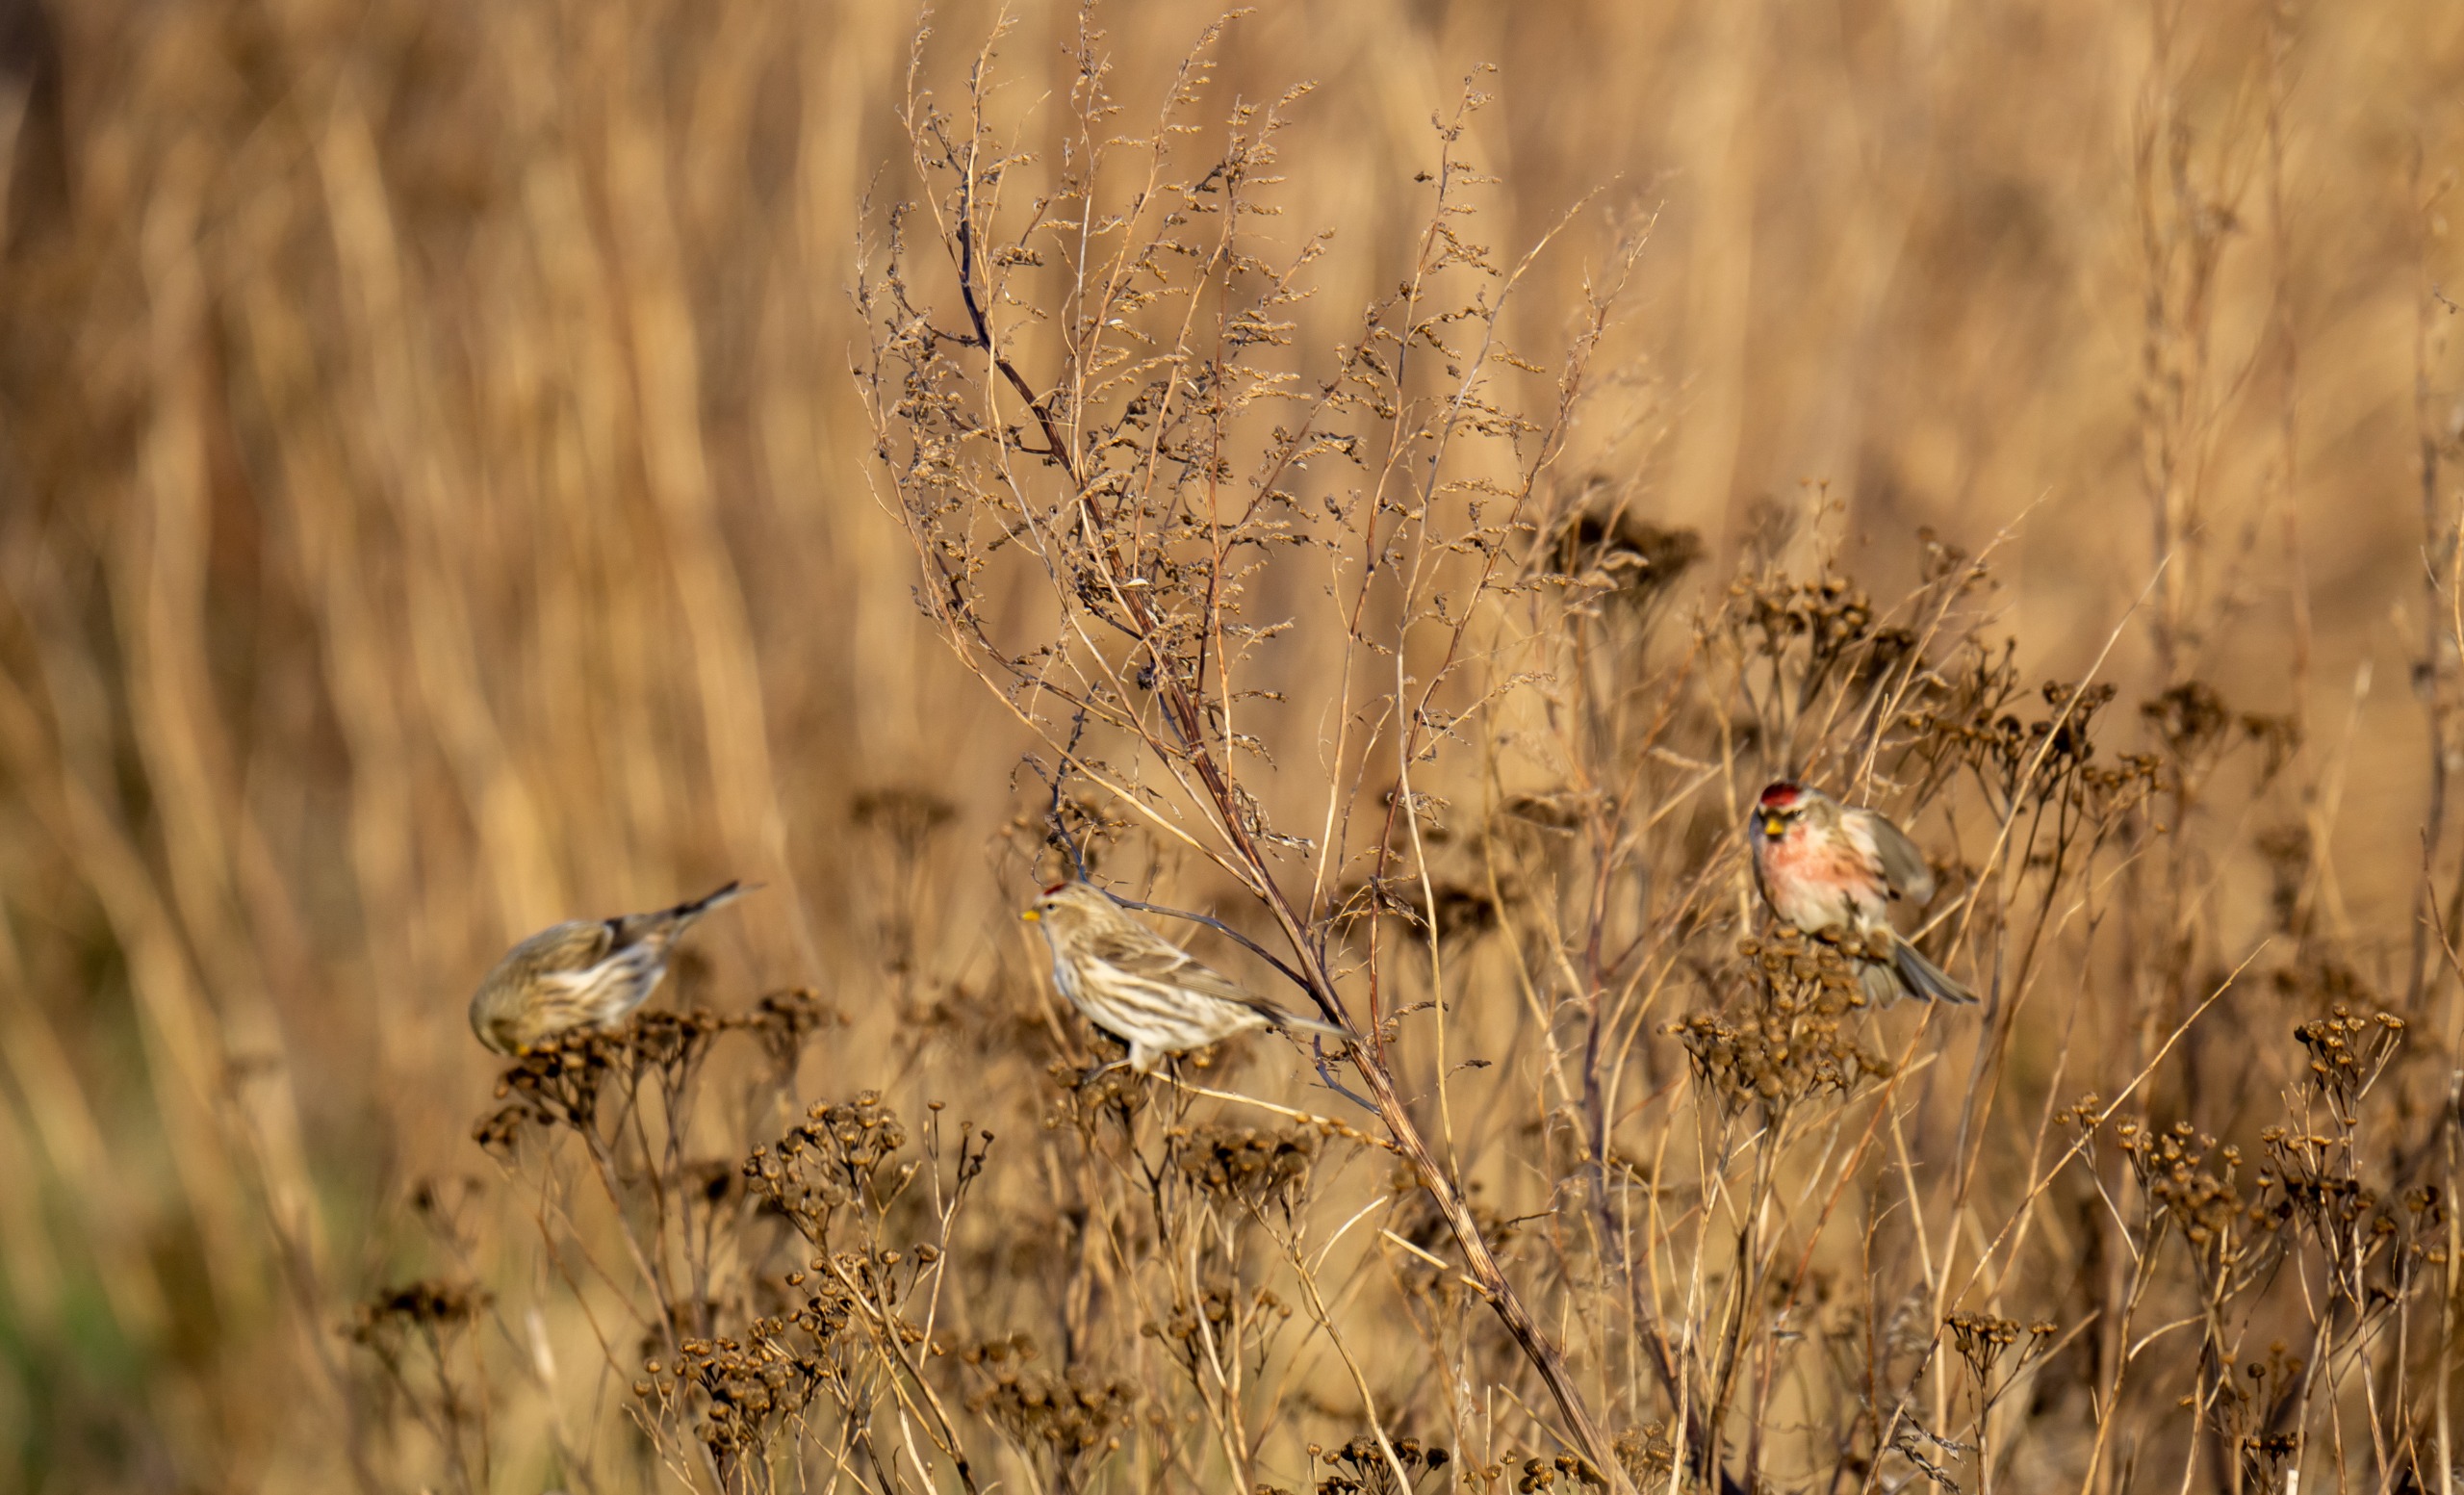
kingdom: Animalia
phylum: Chordata
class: Aves
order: Passeriformes
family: Fringillidae
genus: Acanthis
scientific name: Acanthis flammea
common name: Nordlig gråsisken
